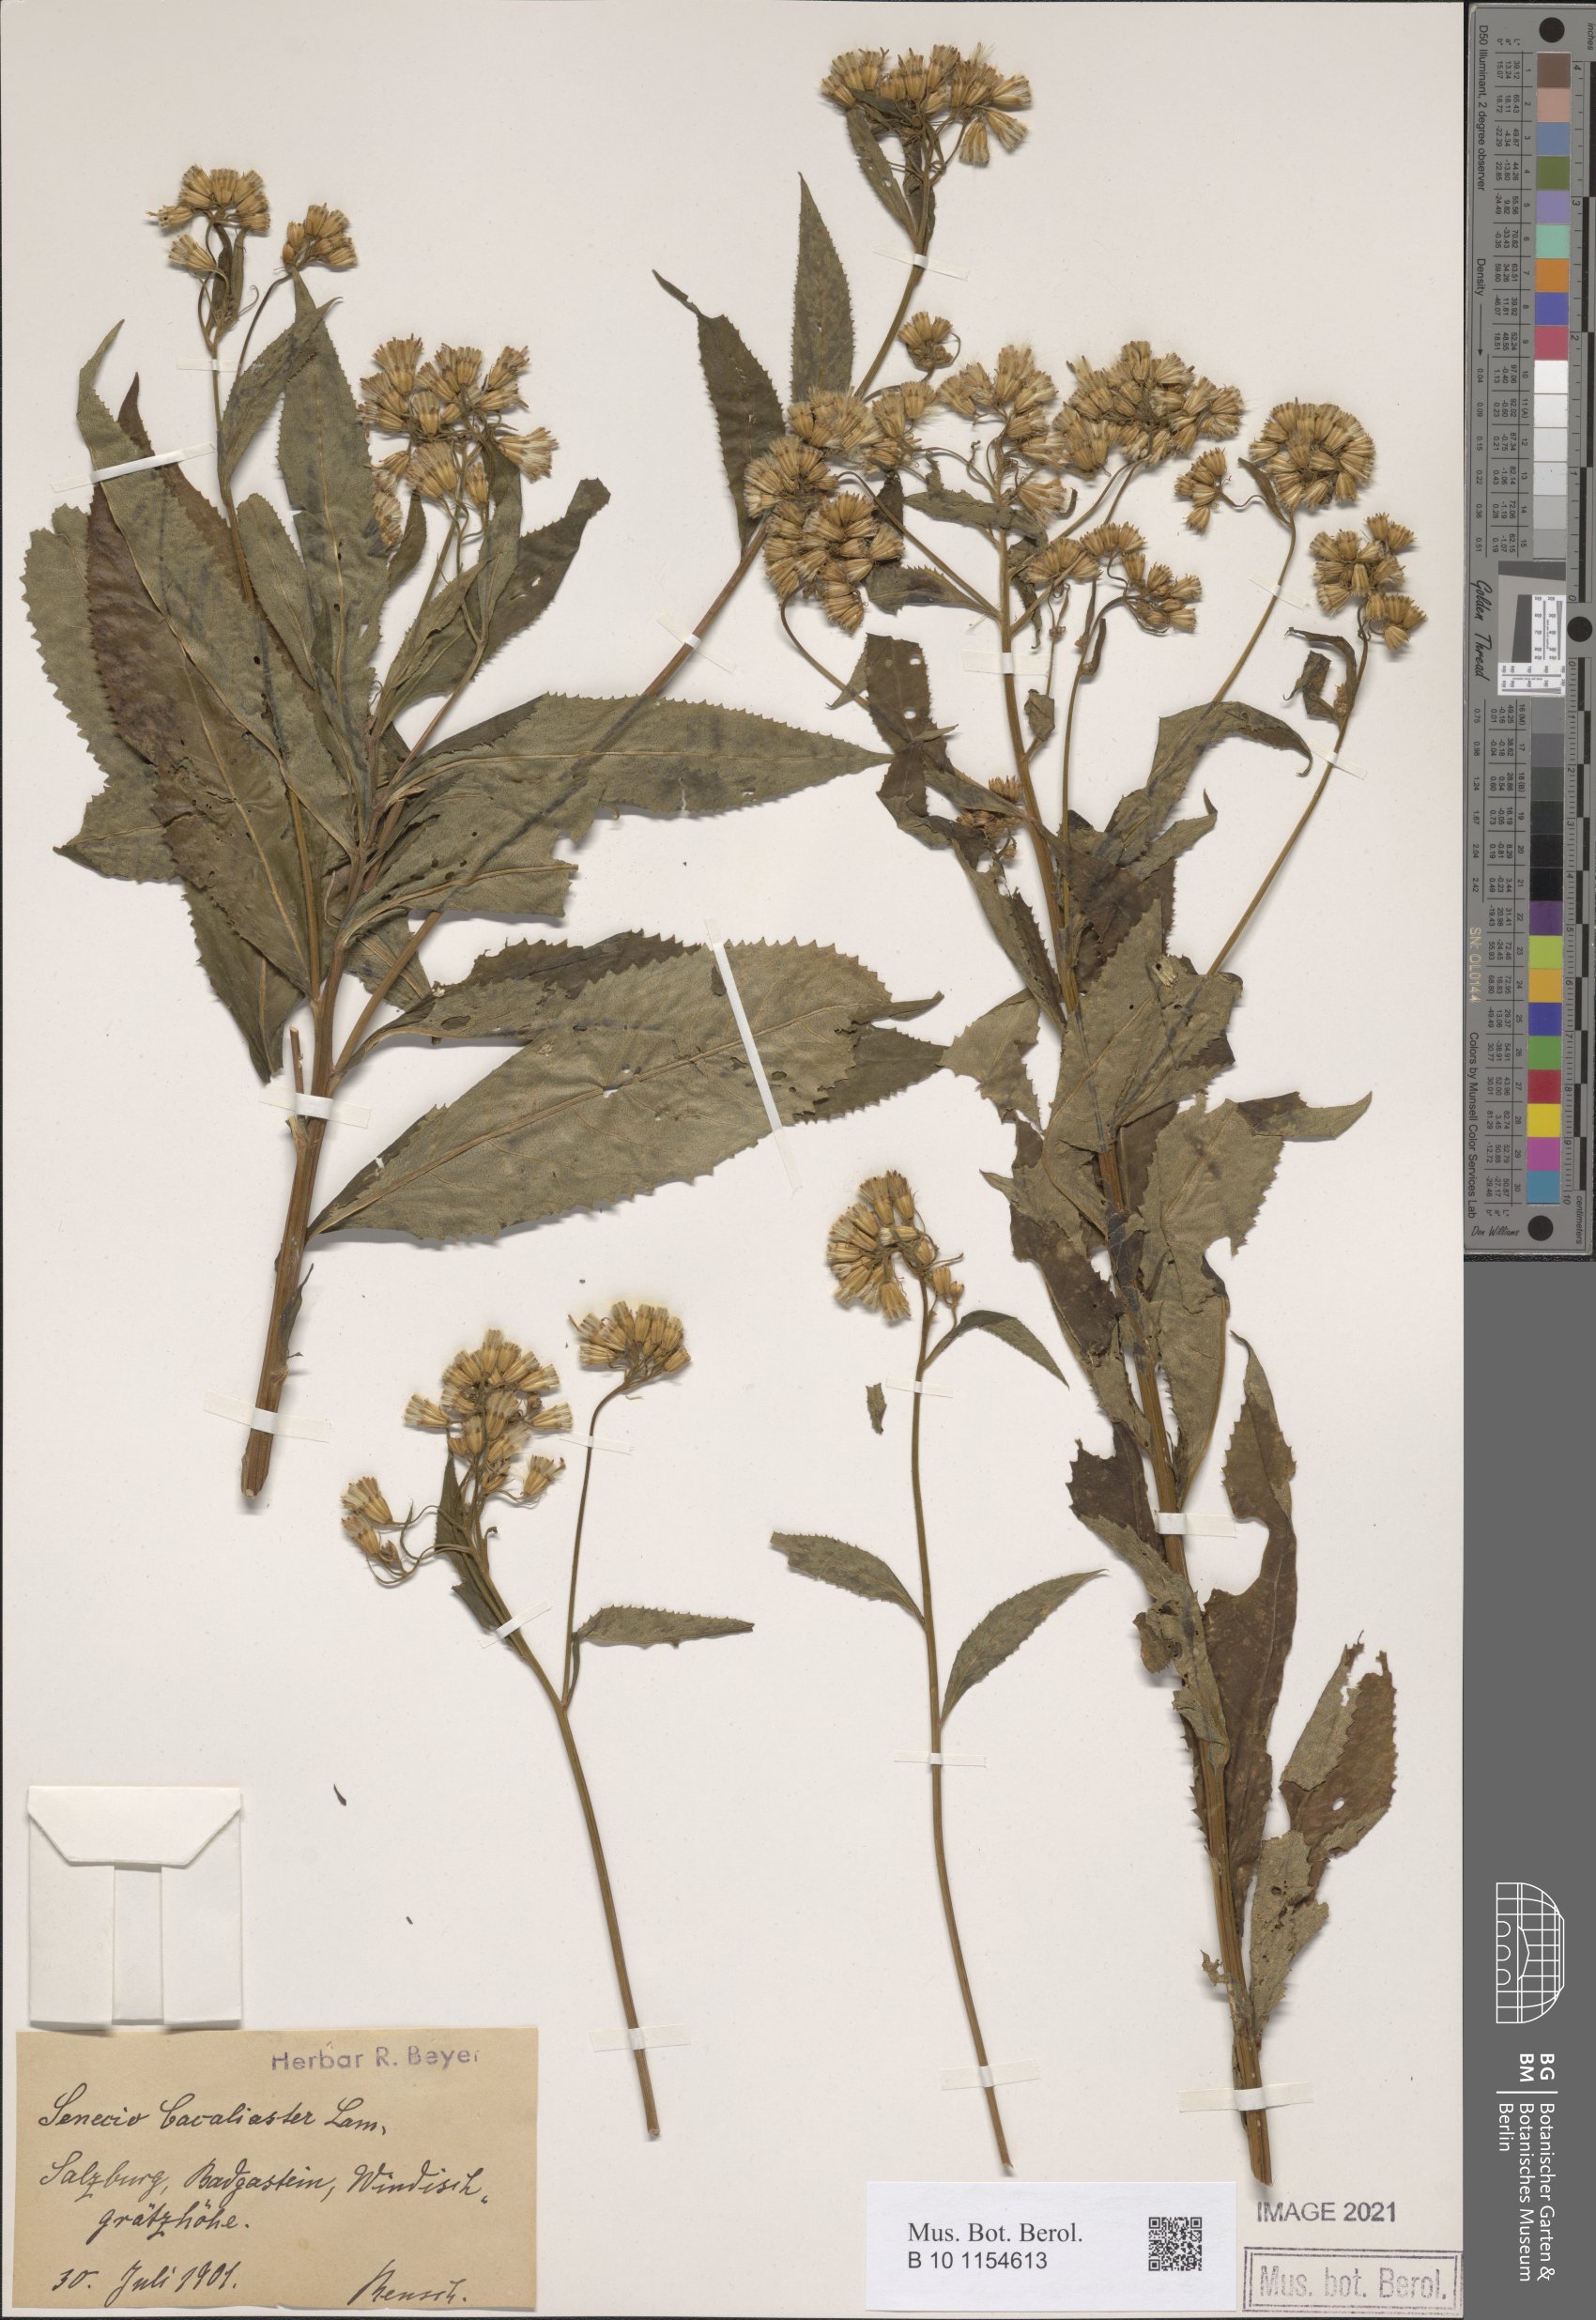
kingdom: Plantae
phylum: Tracheophyta
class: Magnoliopsida
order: Asterales
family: Asteraceae
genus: Senecio
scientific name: Senecio cacaliaster
